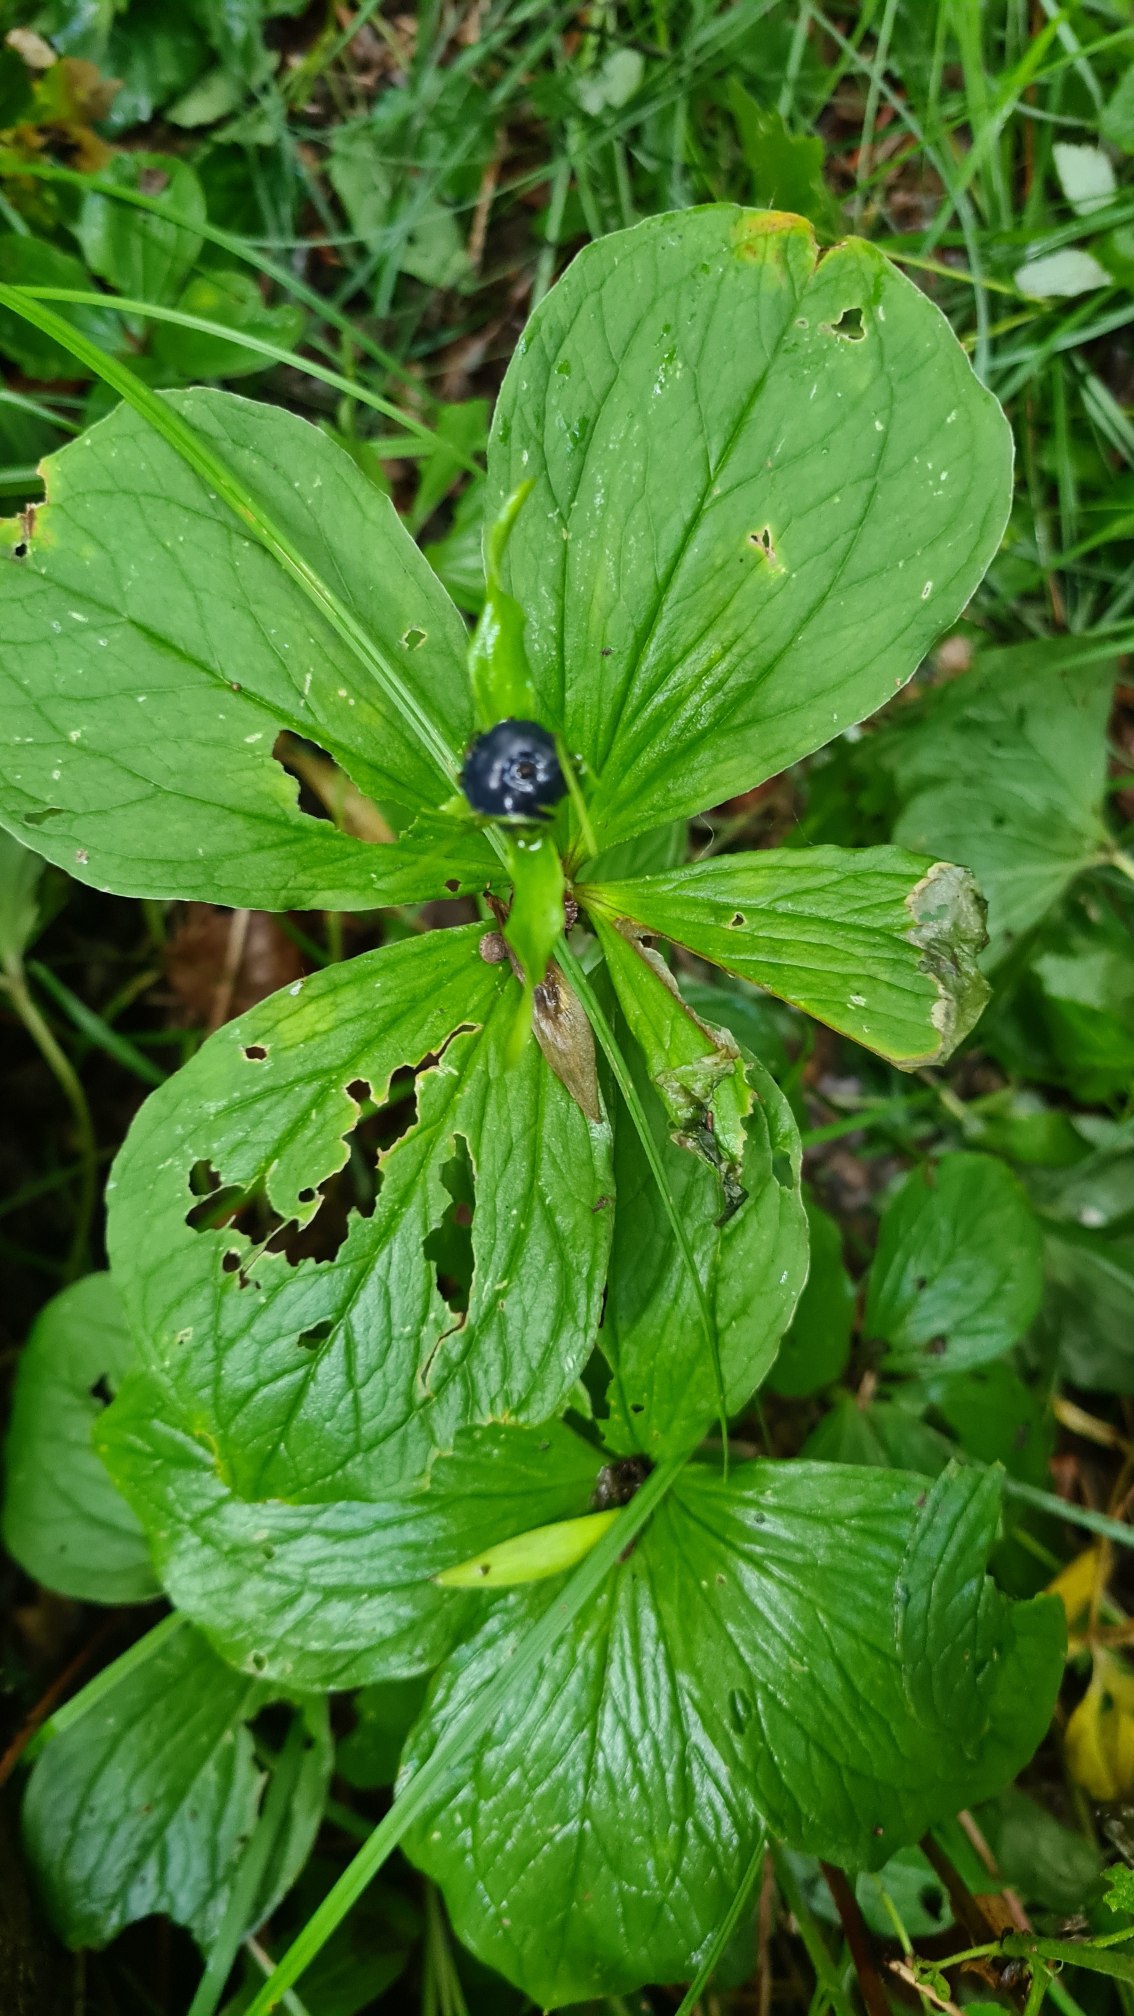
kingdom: Plantae
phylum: Tracheophyta
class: Liliopsida
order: Liliales
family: Melanthiaceae
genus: Paris
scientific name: Paris quadrifolia
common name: Firblad
